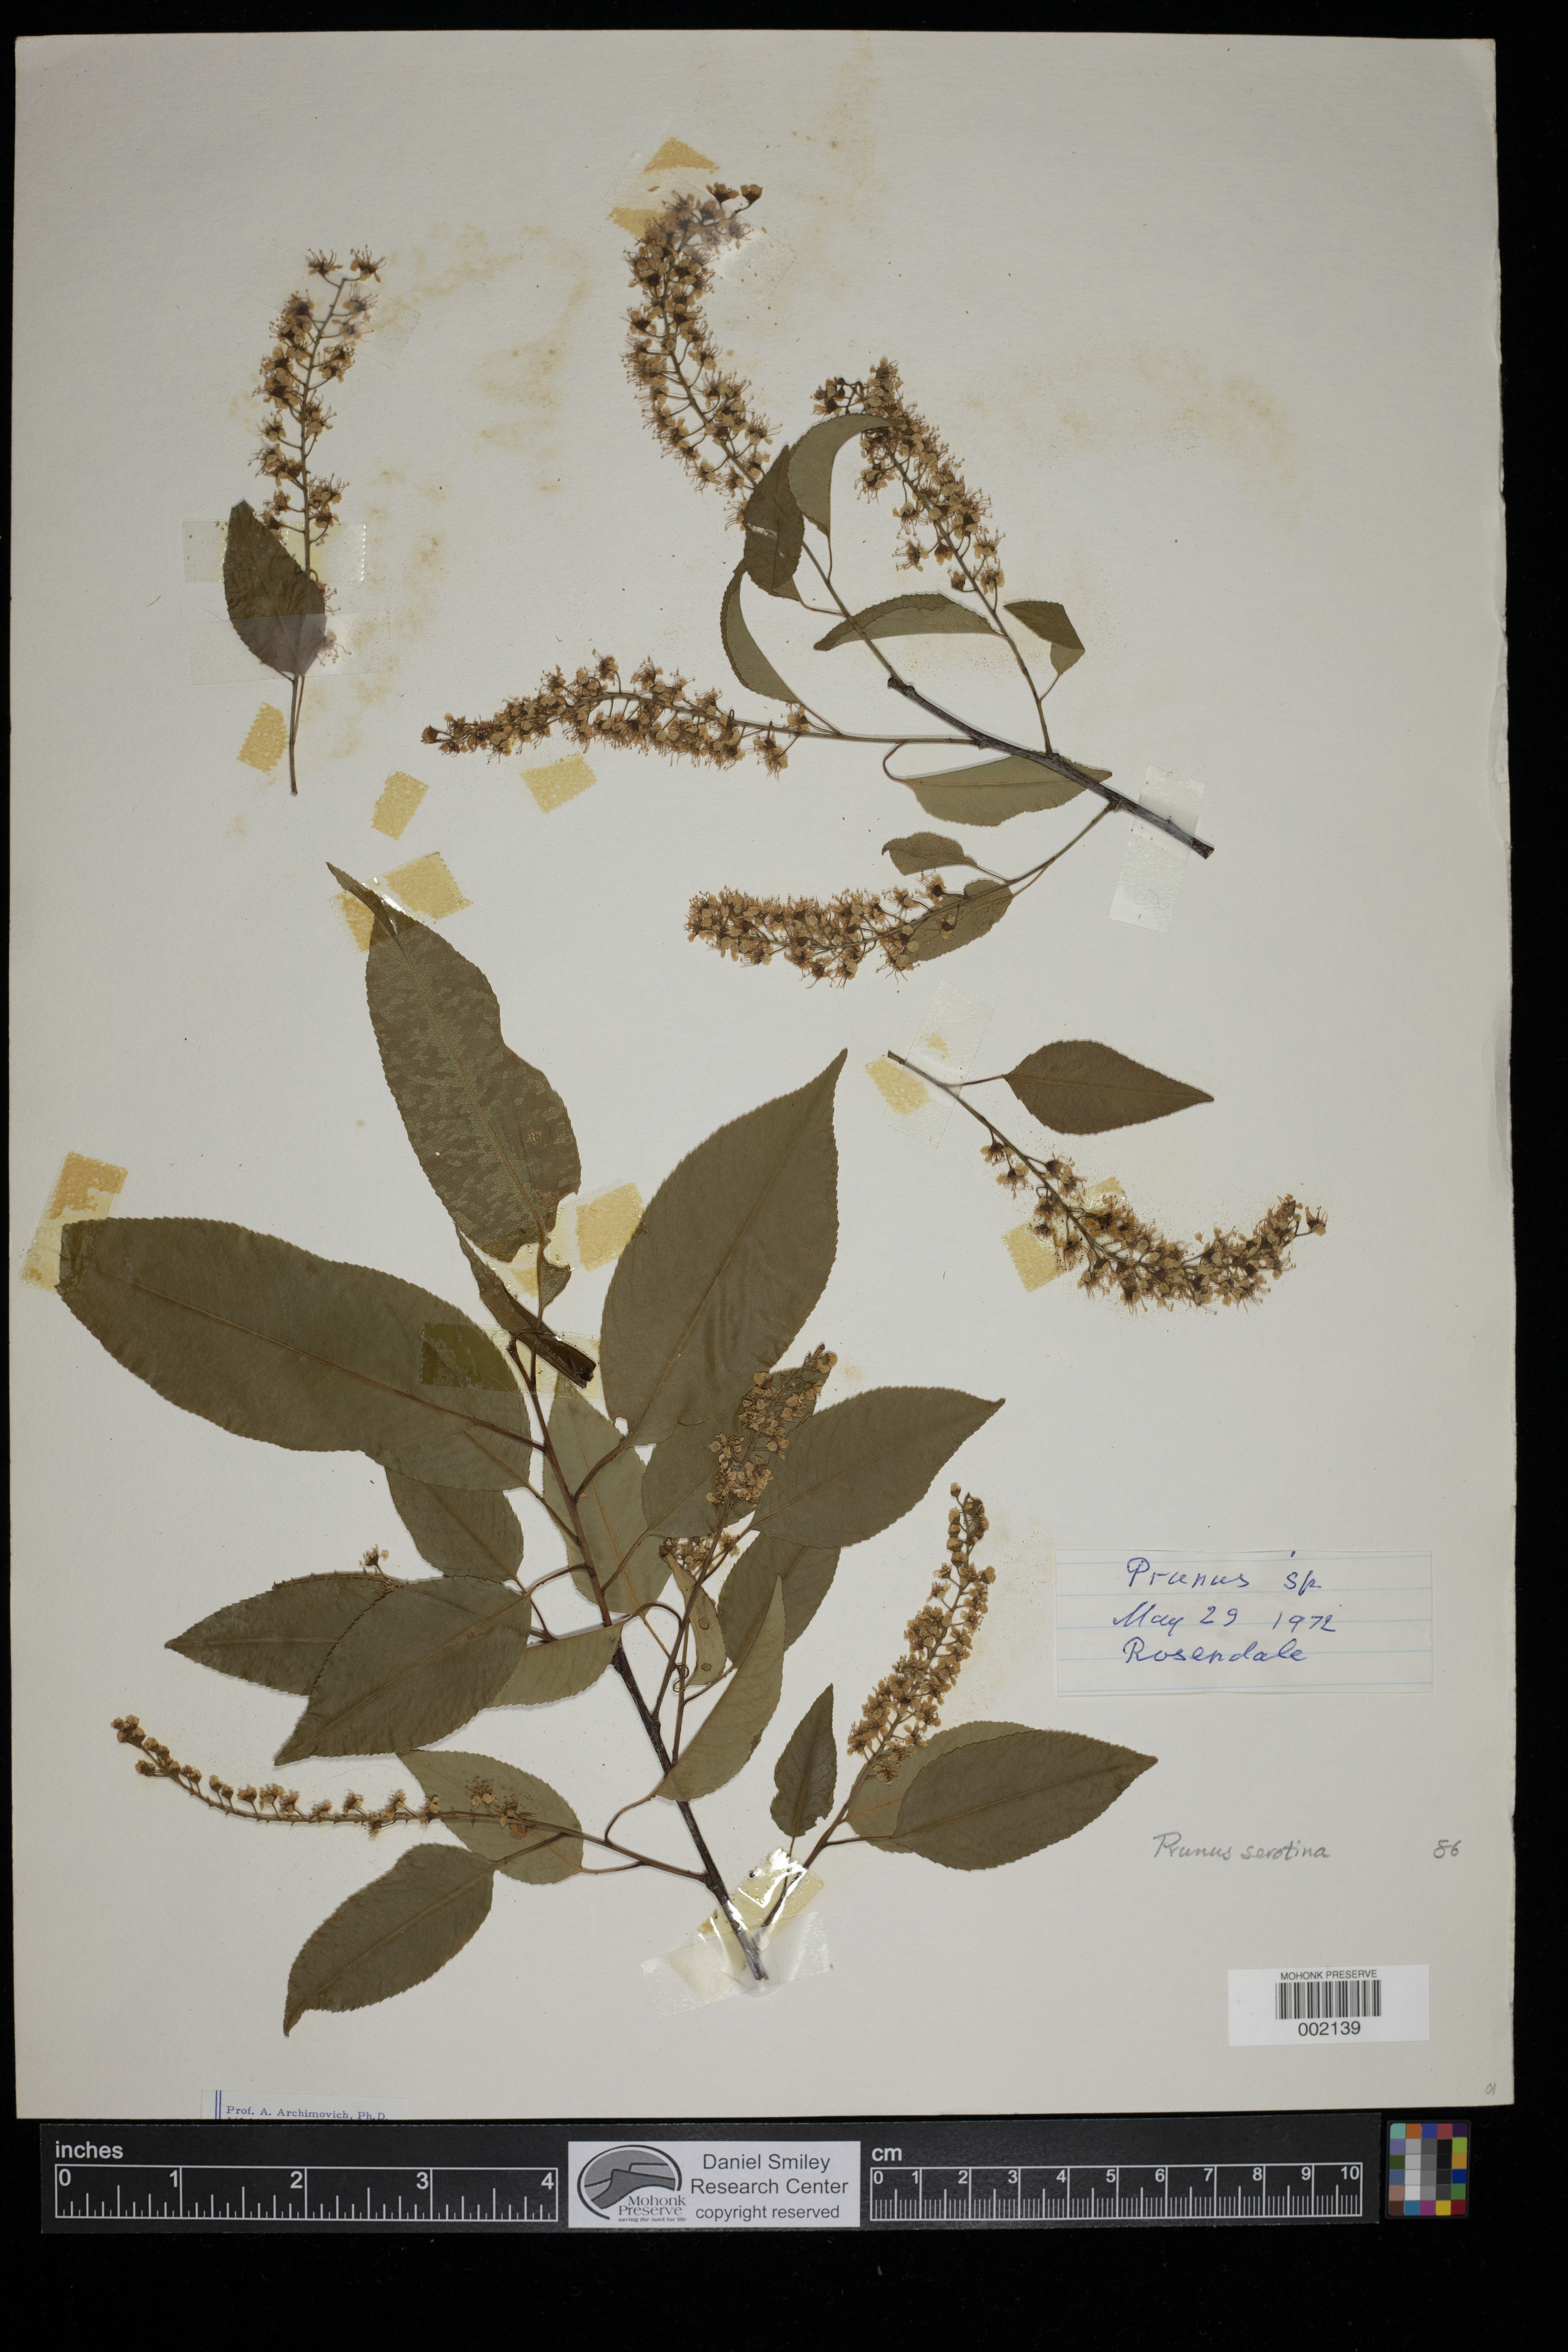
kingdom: Plantae
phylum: Tracheophyta
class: Magnoliopsida
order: Rosales
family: Rosaceae
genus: Prunus
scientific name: Prunus serotina
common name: Black cherry
